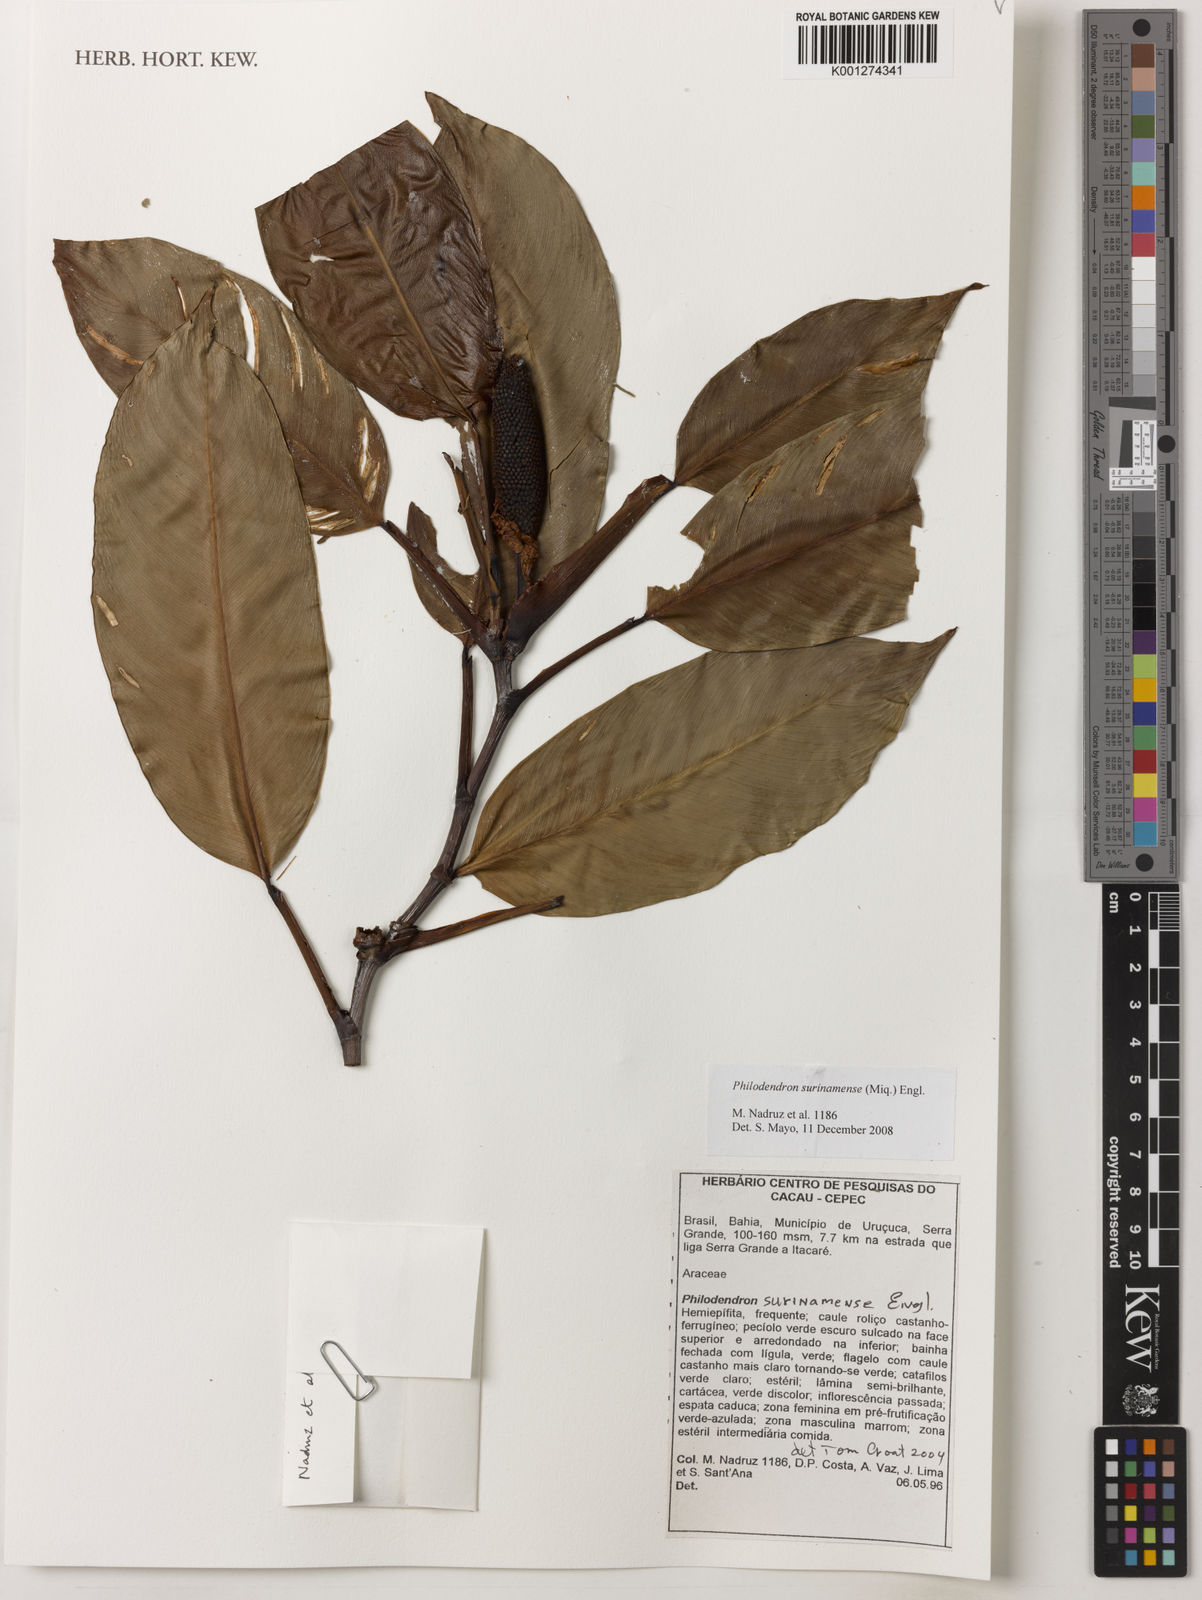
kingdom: Plantae
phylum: Tracheophyta
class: Liliopsida
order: Alismatales
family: Araceae
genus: Philodendron
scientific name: Philodendron surinamense
